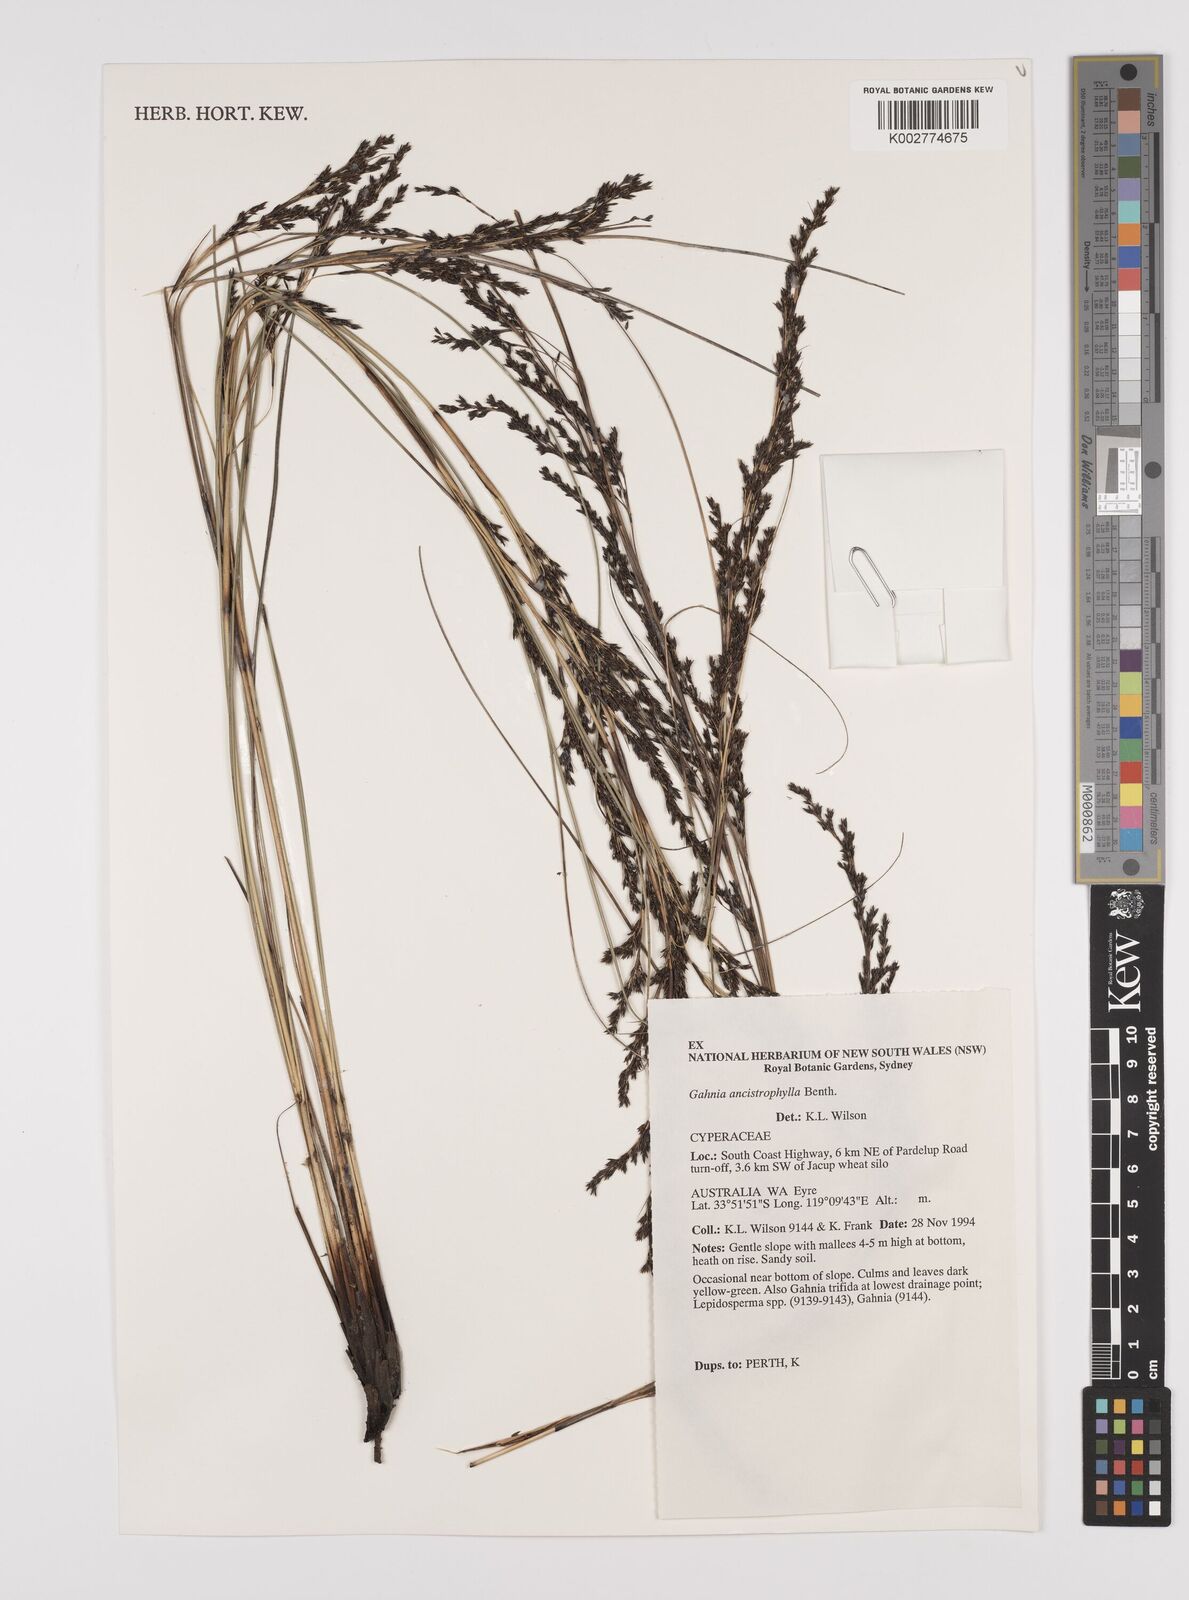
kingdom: Plantae
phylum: Tracheophyta
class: Liliopsida
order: Poales
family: Cyperaceae
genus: Gahnia
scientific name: Gahnia ancistrophylla
